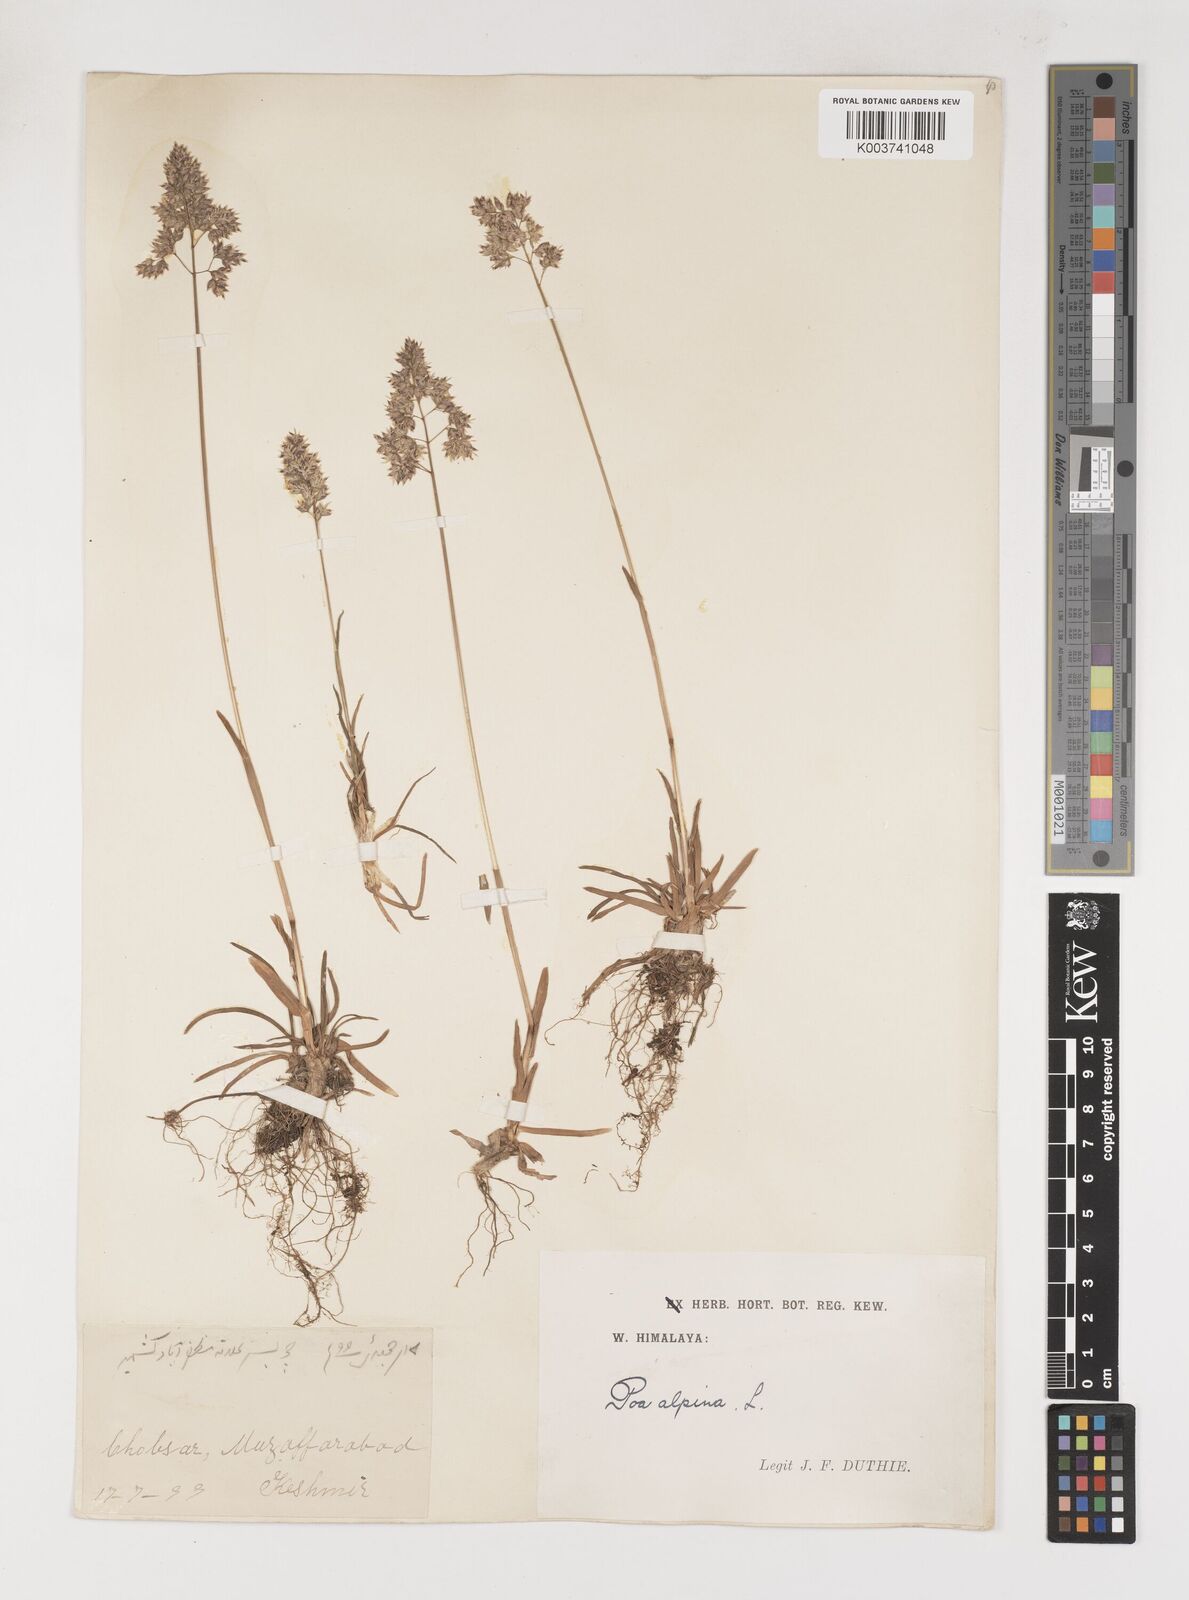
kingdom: Plantae
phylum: Tracheophyta
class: Liliopsida
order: Poales
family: Poaceae
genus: Poa
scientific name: Poa alpina
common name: Alpine bluegrass
